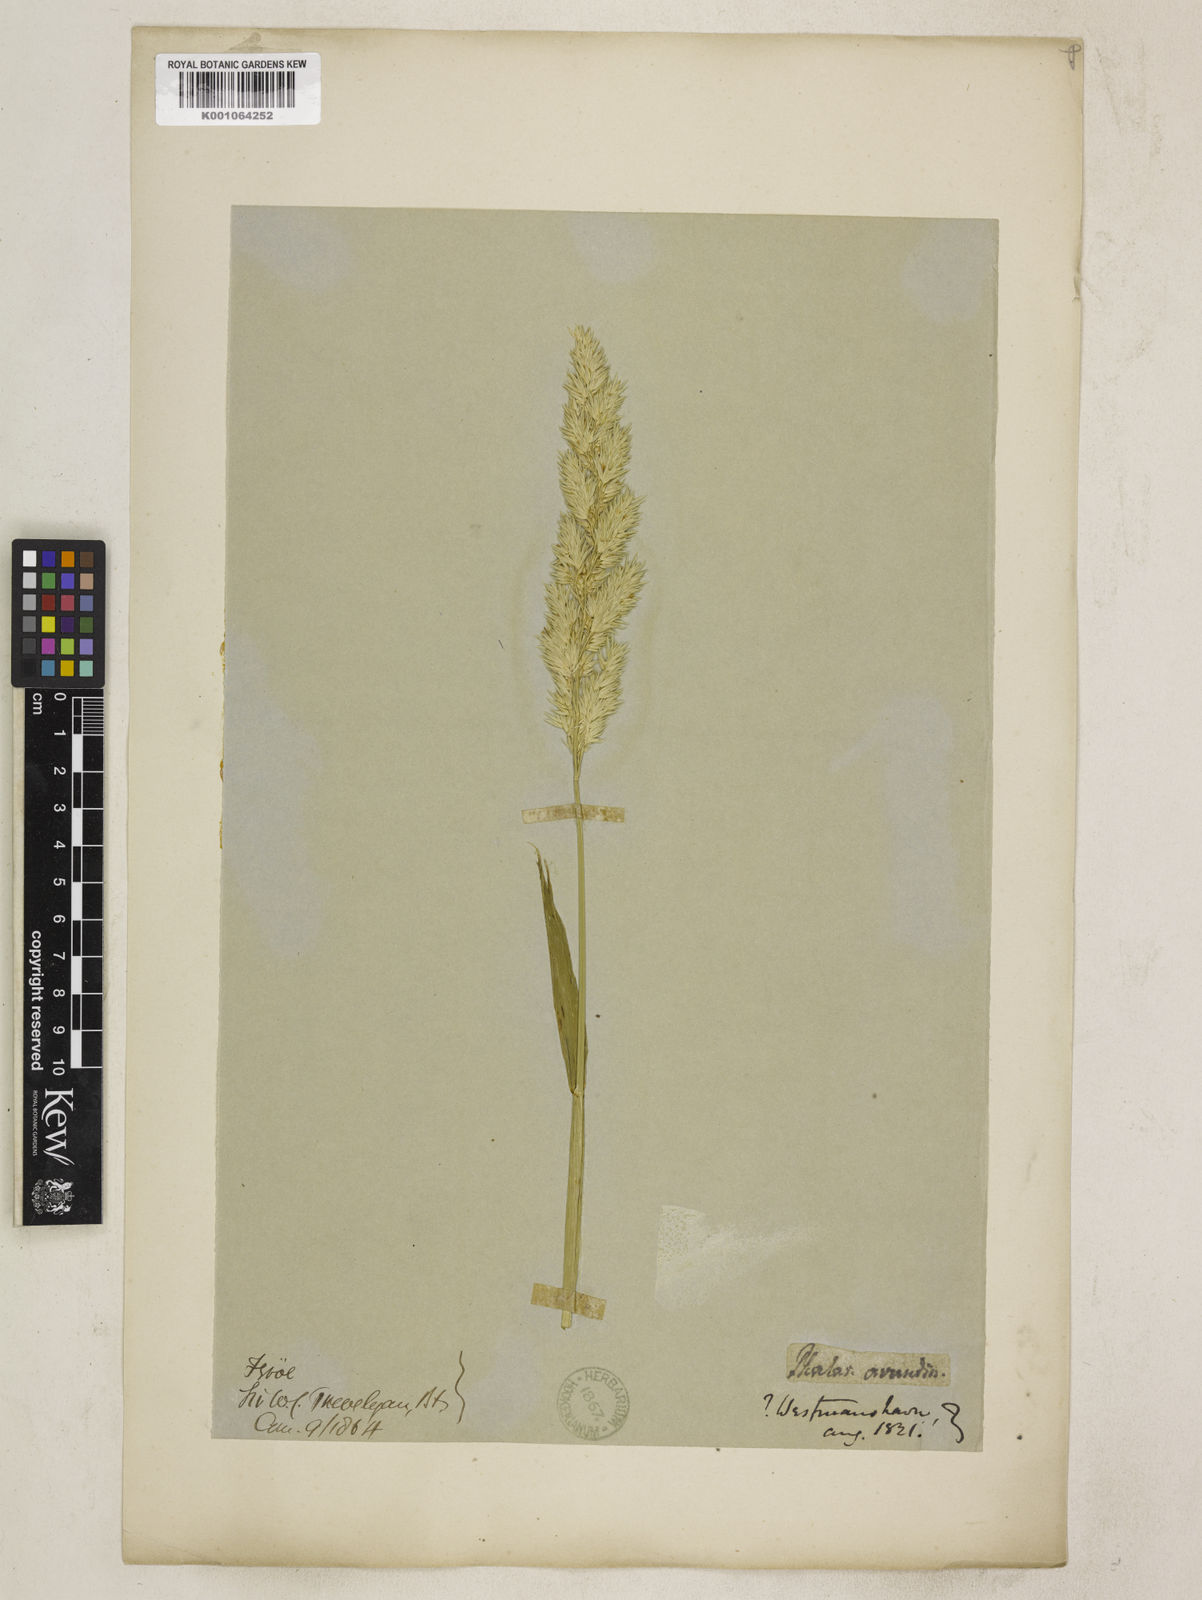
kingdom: Plantae
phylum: Tracheophyta
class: Liliopsida
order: Poales
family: Poaceae
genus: Phalaris
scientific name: Phalaris arundinacea
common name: Reed canary-grass
